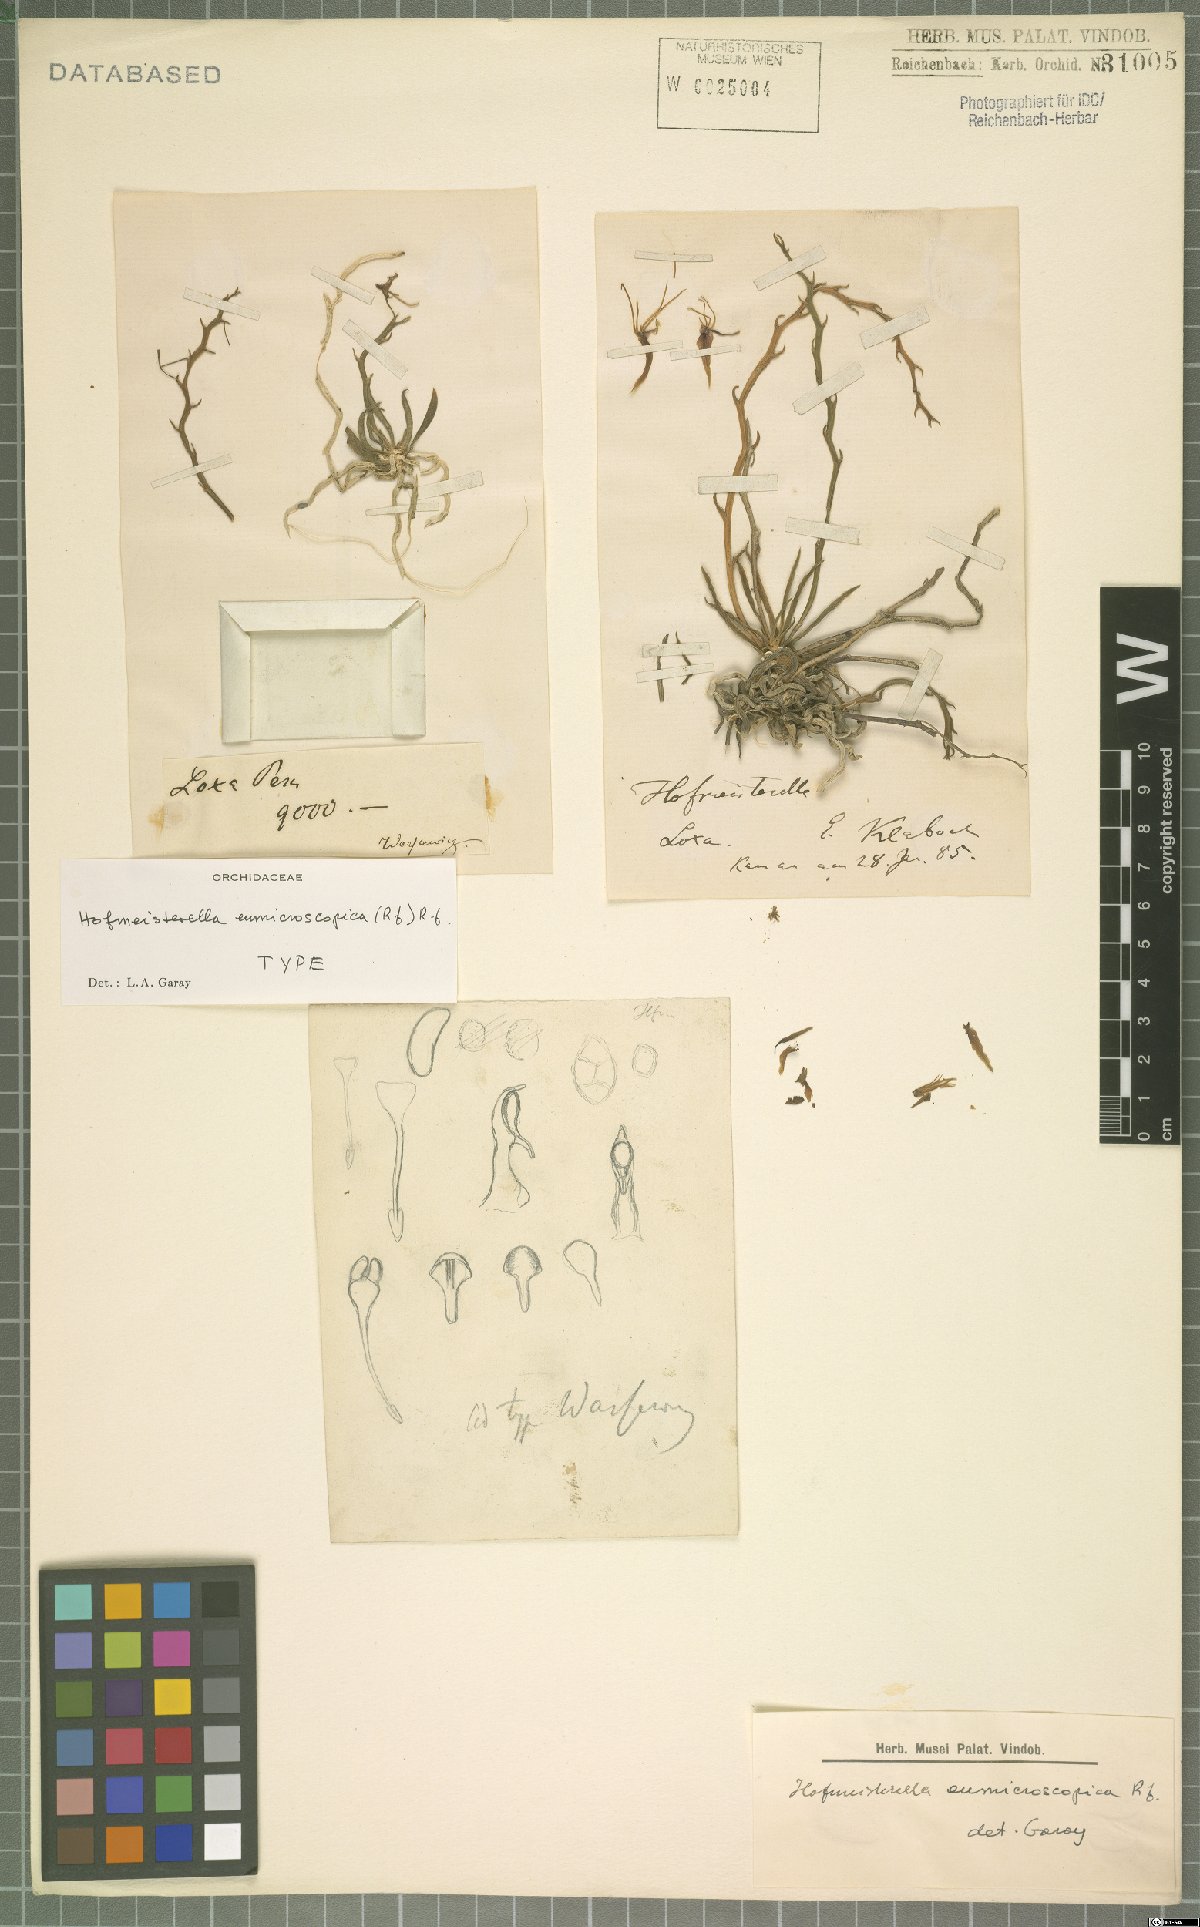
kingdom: Plantae
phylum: Tracheophyta
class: Liliopsida
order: Asparagales
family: Orchidaceae
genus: Hofmeisterella
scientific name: Hofmeisterella eumicroscopica
